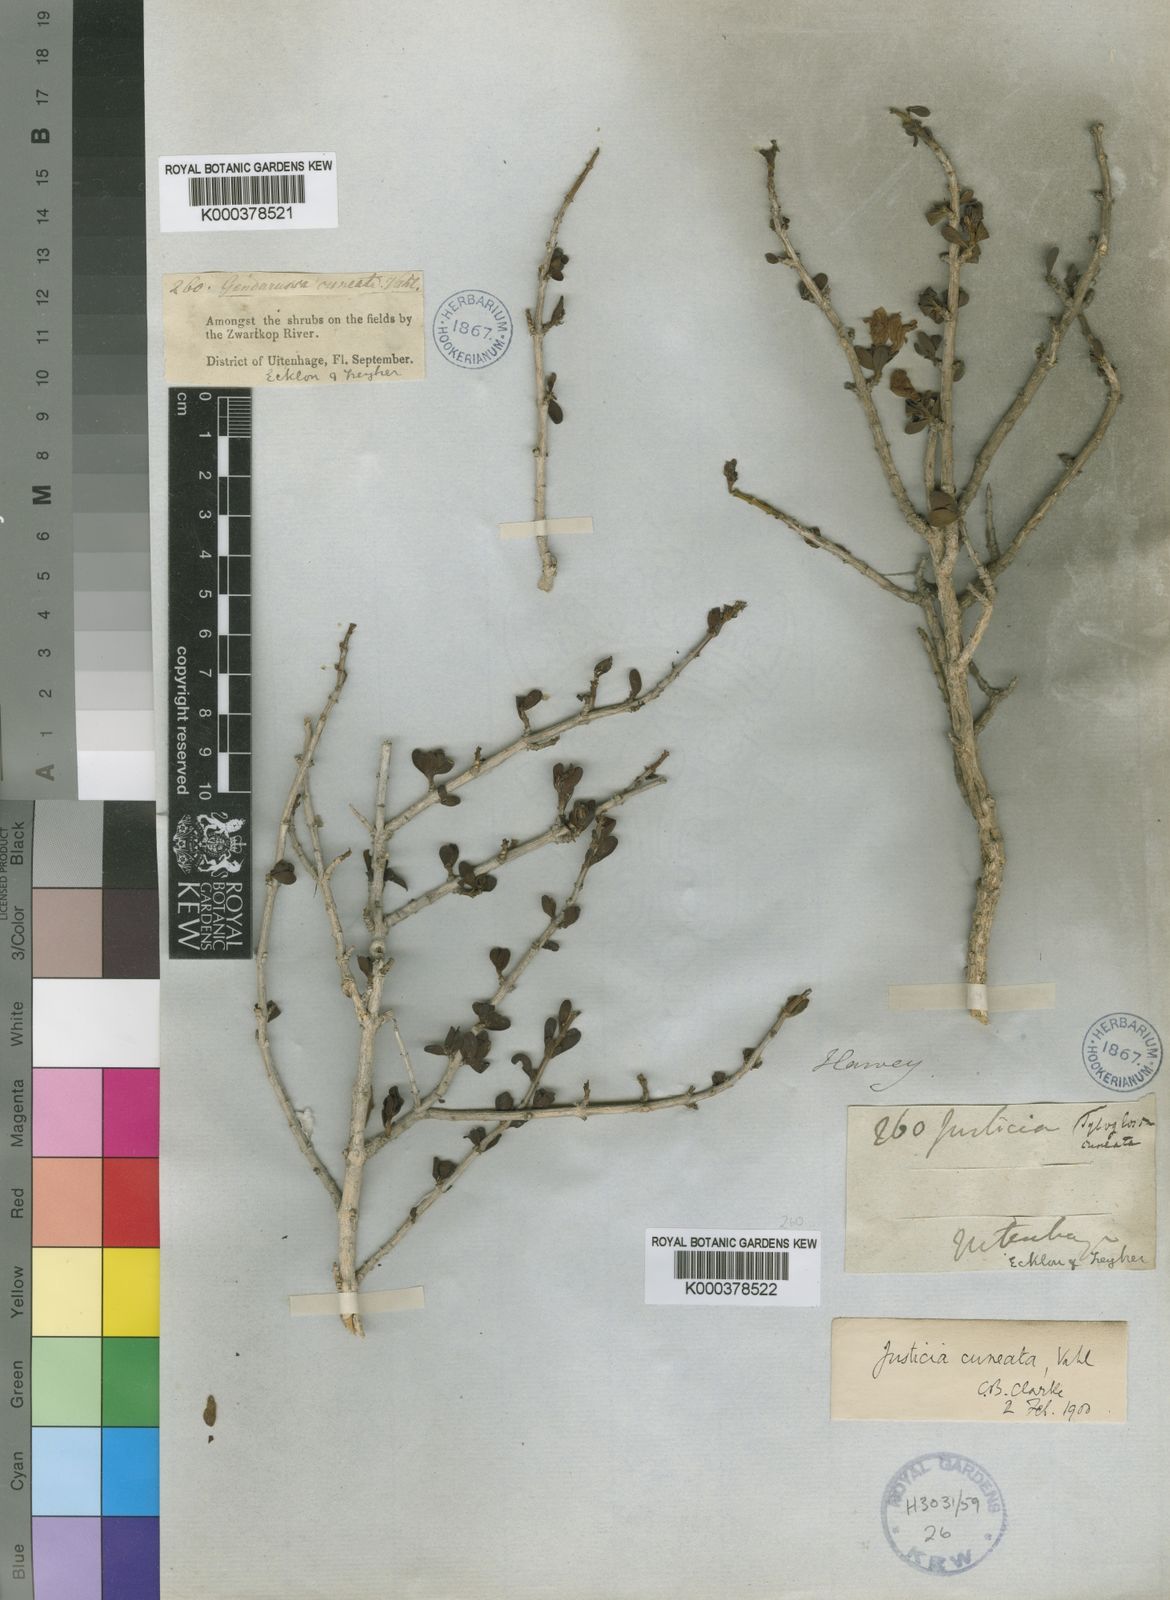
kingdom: Plantae
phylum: Tracheophyta
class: Magnoliopsida
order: Lamiales
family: Acanthaceae
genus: Justicia
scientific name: Justicia cuneata
